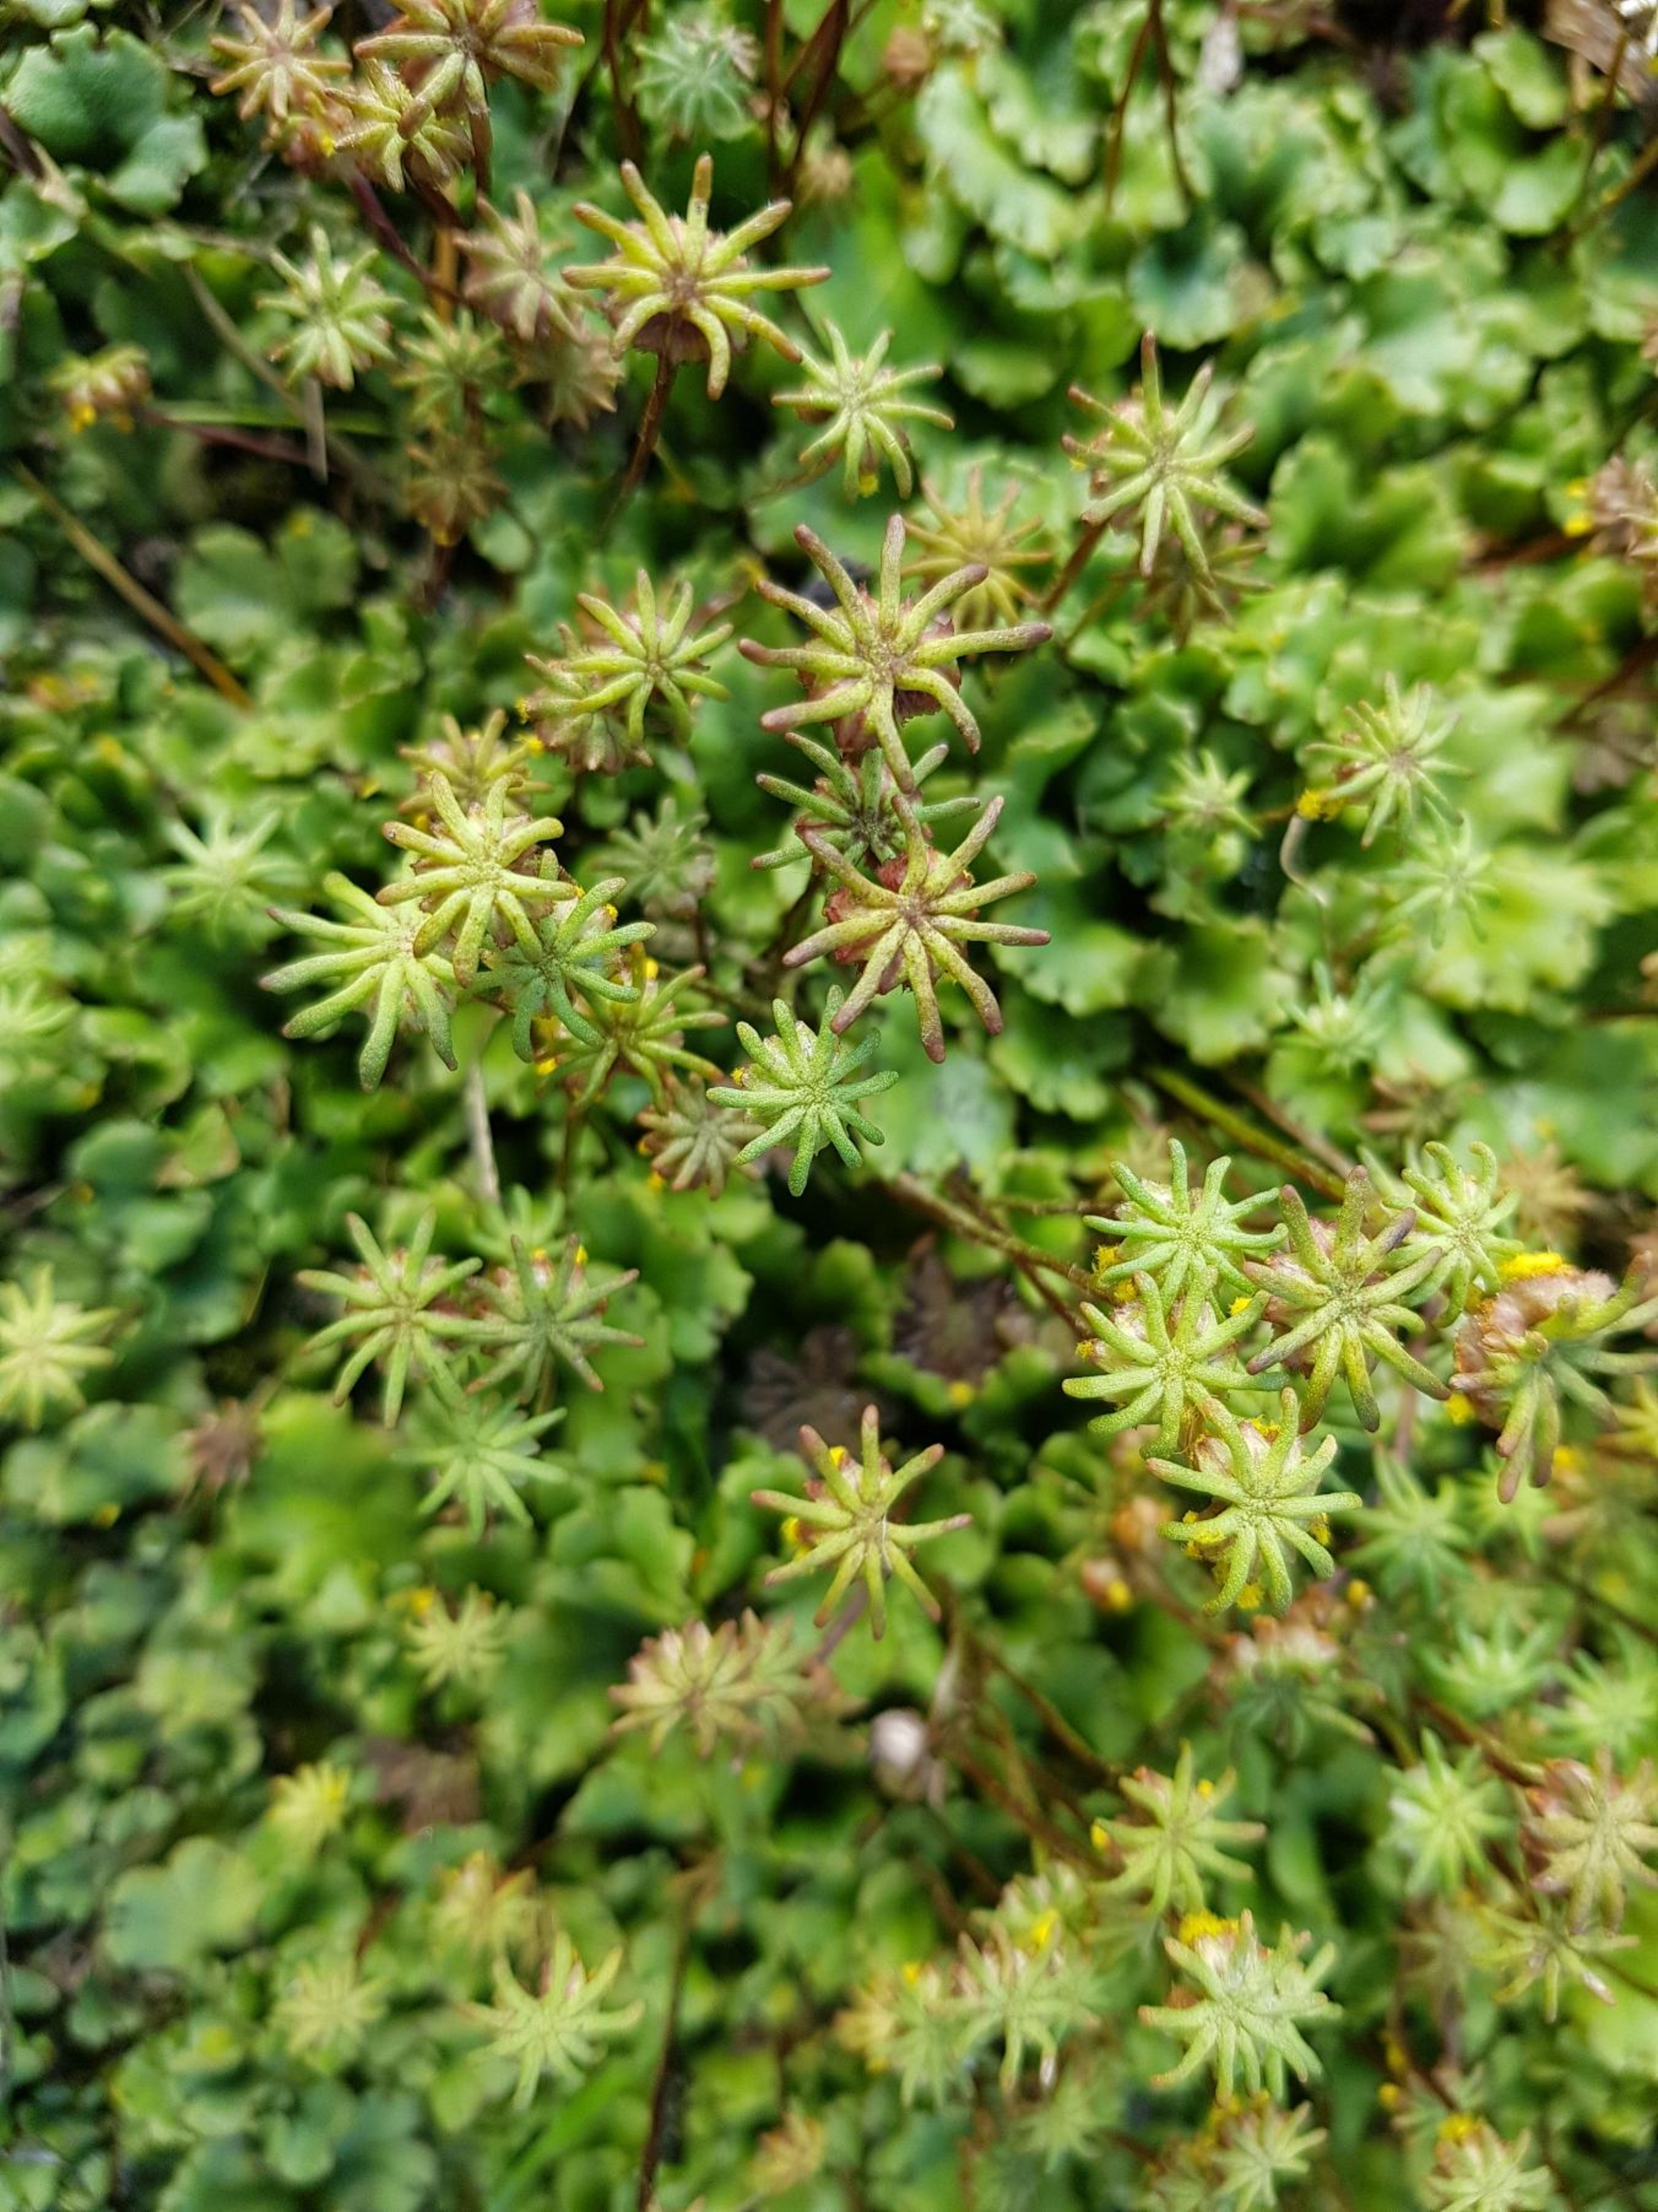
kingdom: Plantae
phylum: Marchantiophyta
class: Marchantiopsida
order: Marchantiales
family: Marchantiaceae
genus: Marchantia
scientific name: Marchantia polymorpha
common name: Almindelig lungemos (underart)
